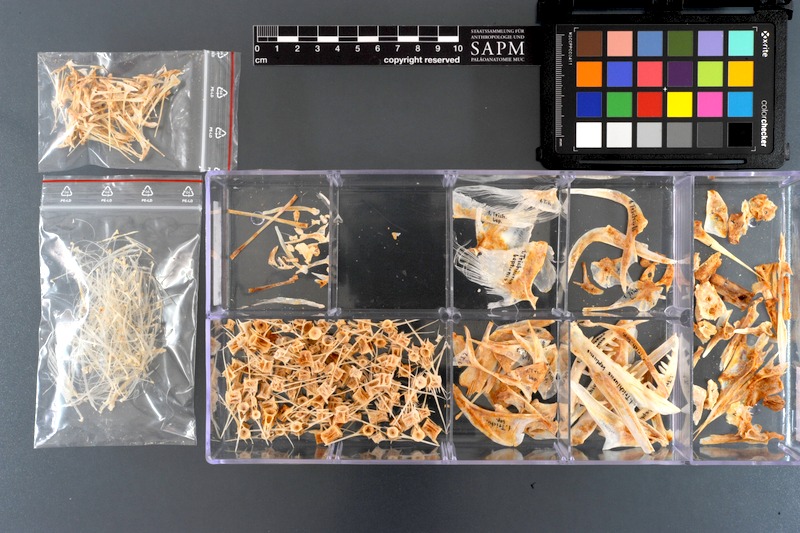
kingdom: Animalia
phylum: Chordata
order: Perciformes
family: Trichiuridae
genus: Trichiurus
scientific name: Trichiurus lepturus
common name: Largehead hairtail
